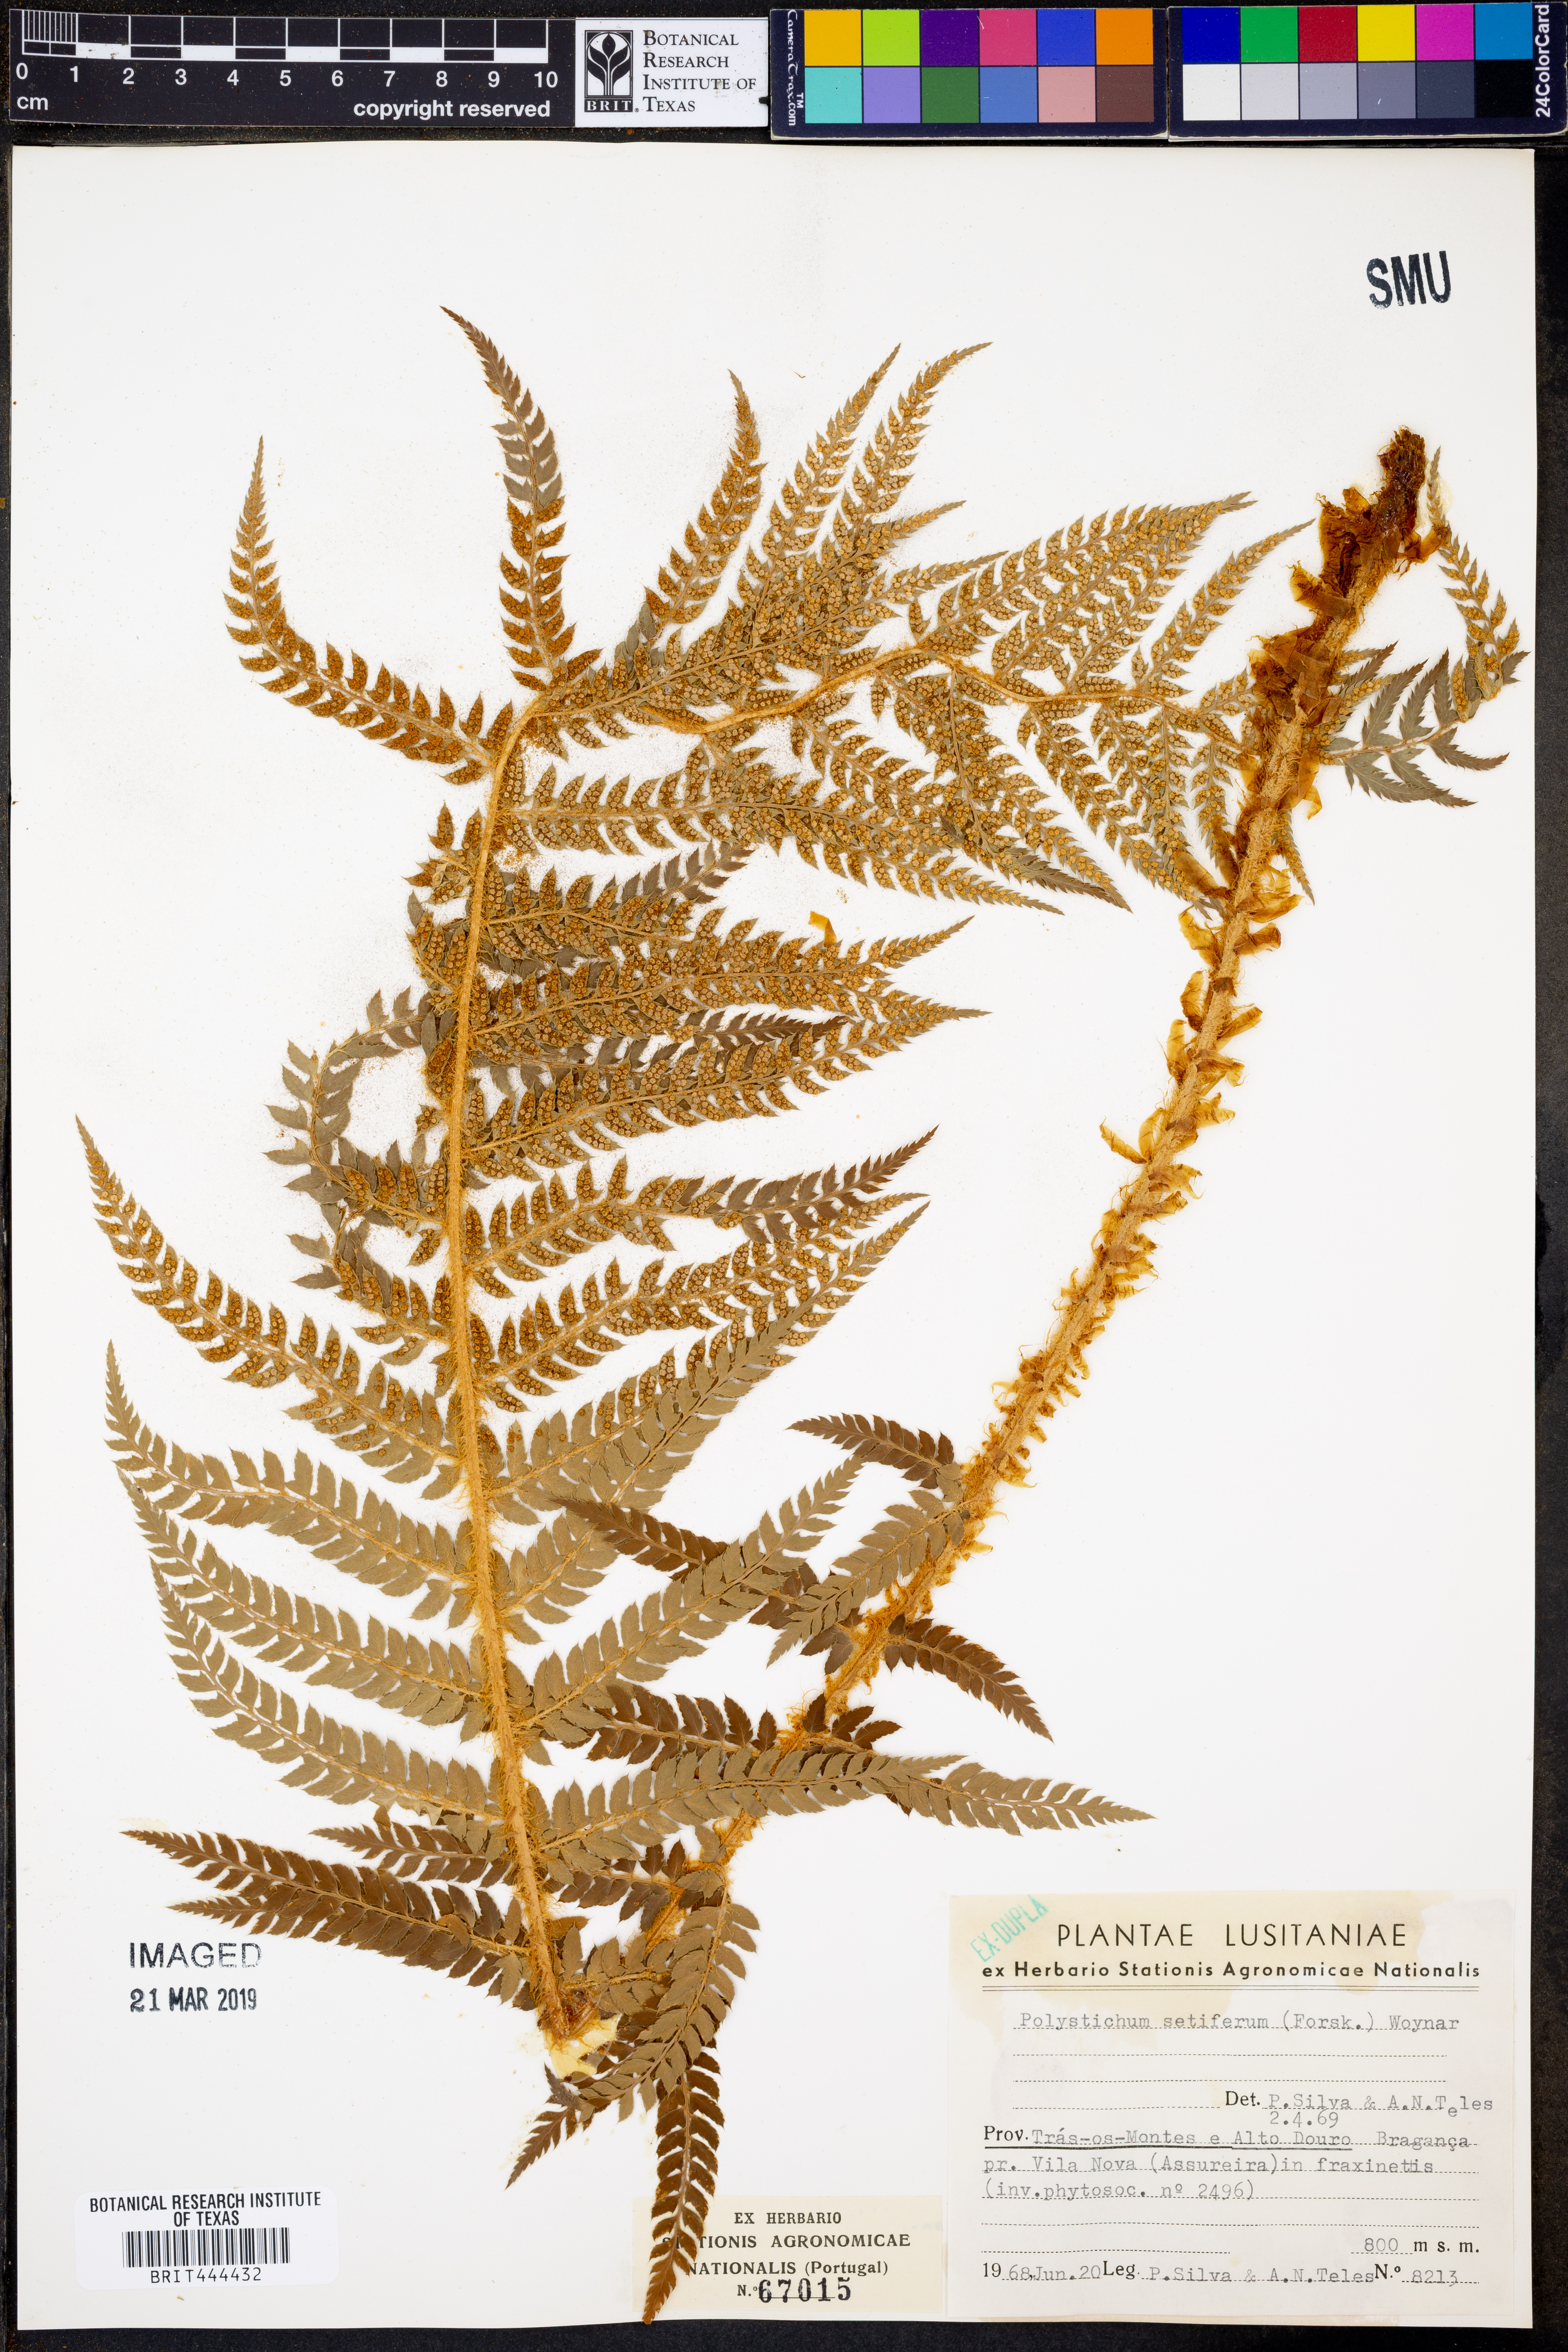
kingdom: Plantae
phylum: Tracheophyta
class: Polypodiopsida
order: Polypodiales
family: Dryopteridaceae
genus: Polystichum
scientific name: Polystichum setiferum
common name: Soft shield-fern
